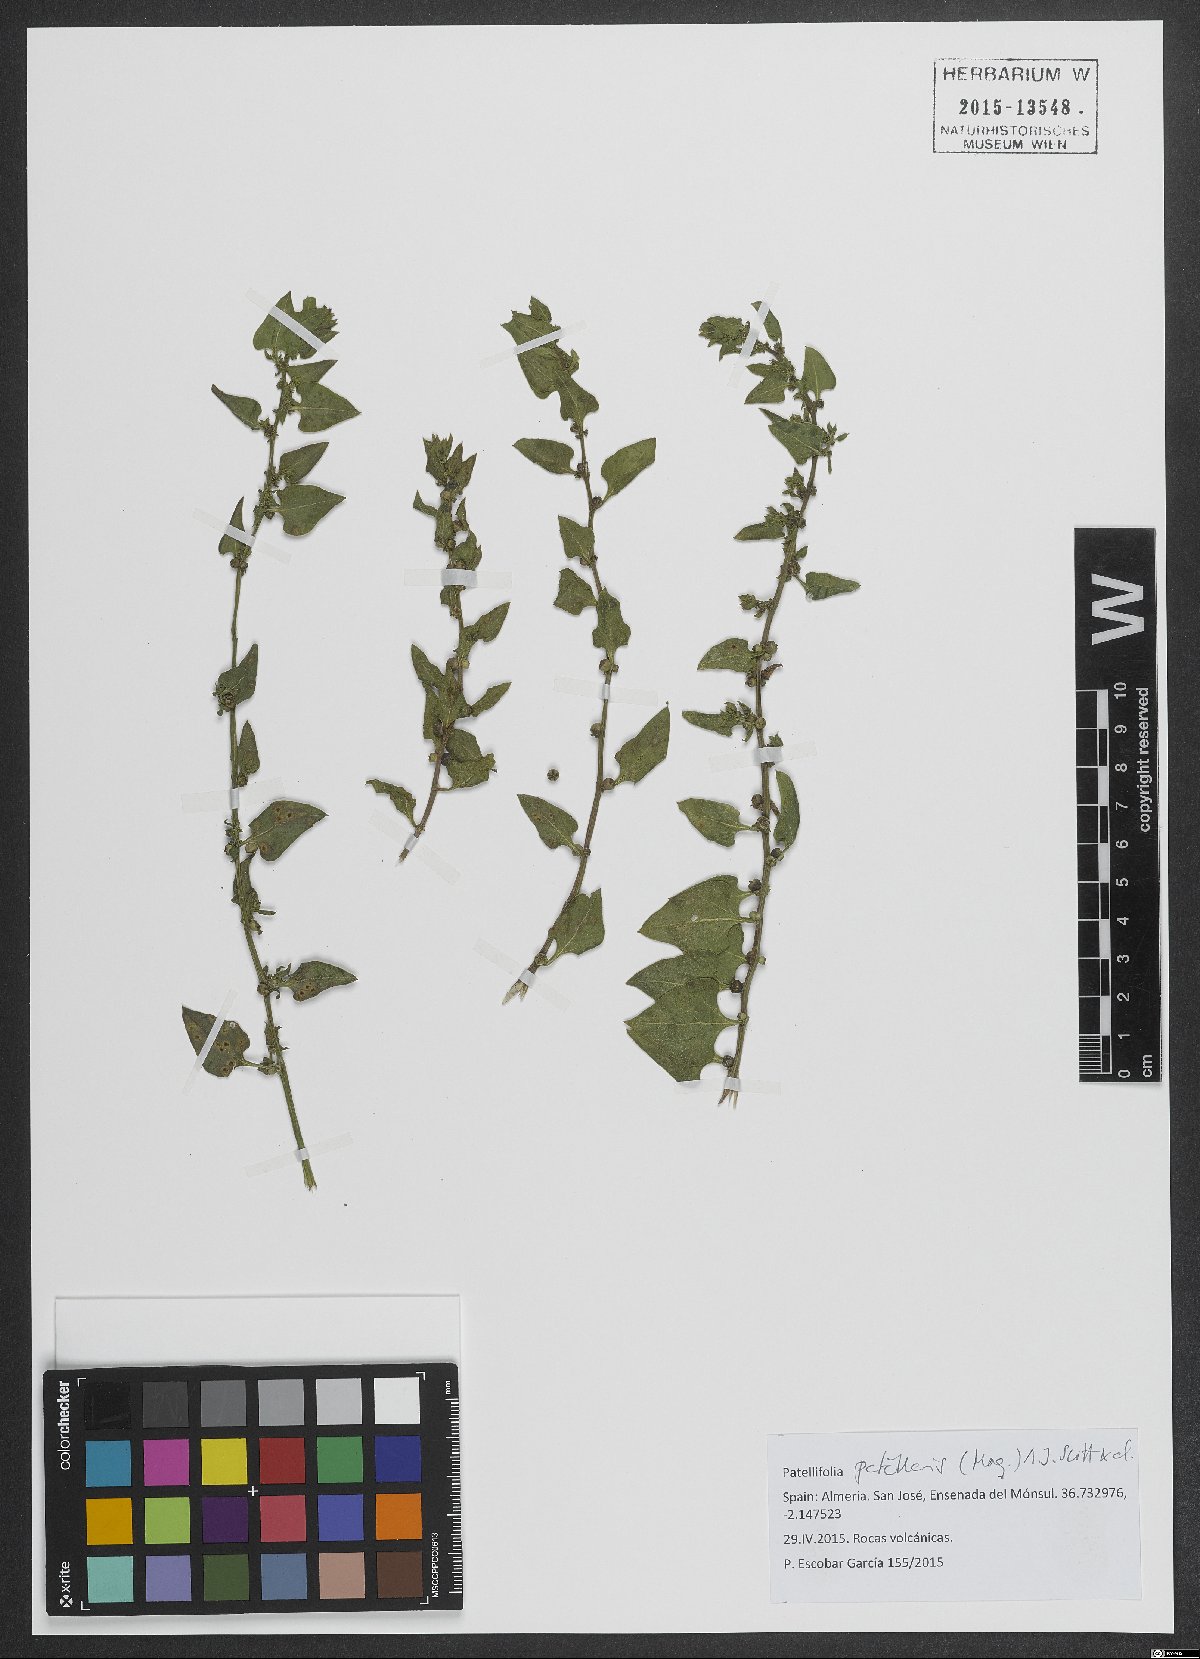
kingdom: Plantae
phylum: Tracheophyta
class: Magnoliopsida
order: Caryophyllales
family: Amaranthaceae
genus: Patellifolia
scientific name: Patellifolia procumbens
